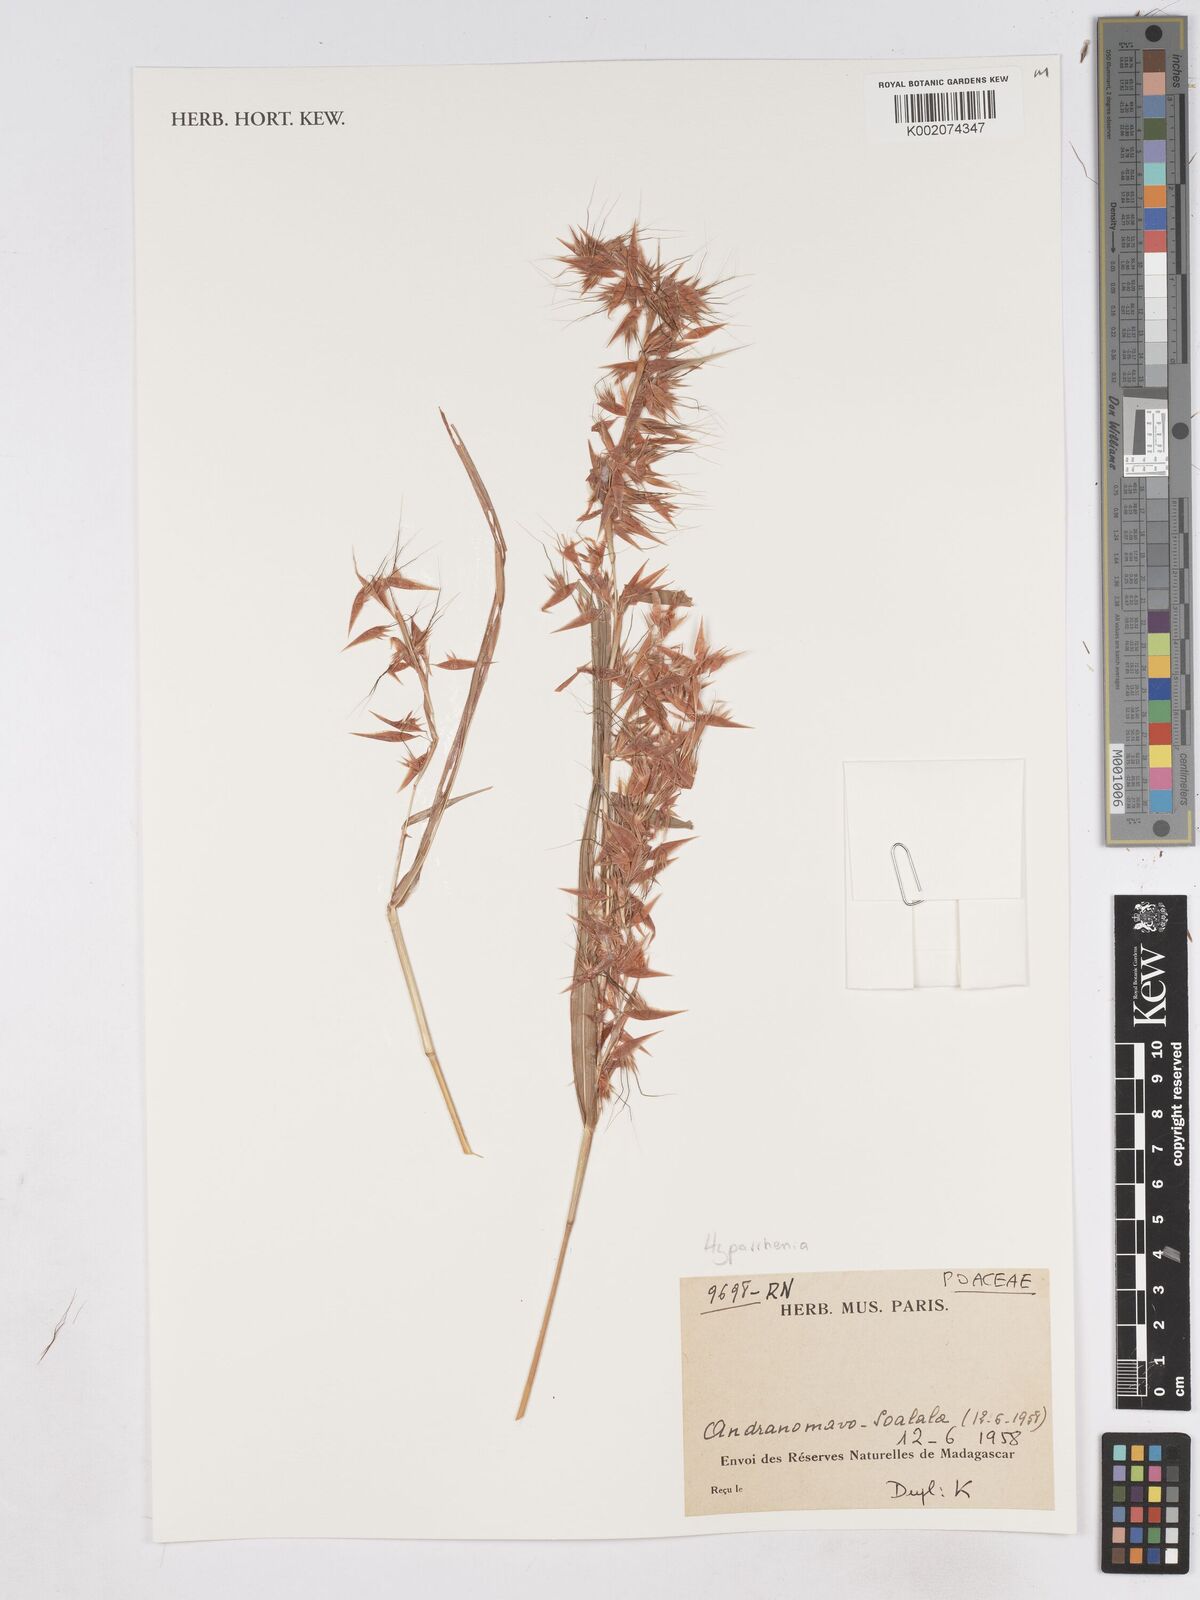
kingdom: Plantae
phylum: Tracheophyta
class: Liliopsida
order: Poales
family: Poaceae
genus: Hyparrhenia
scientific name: Hyparrhenia
